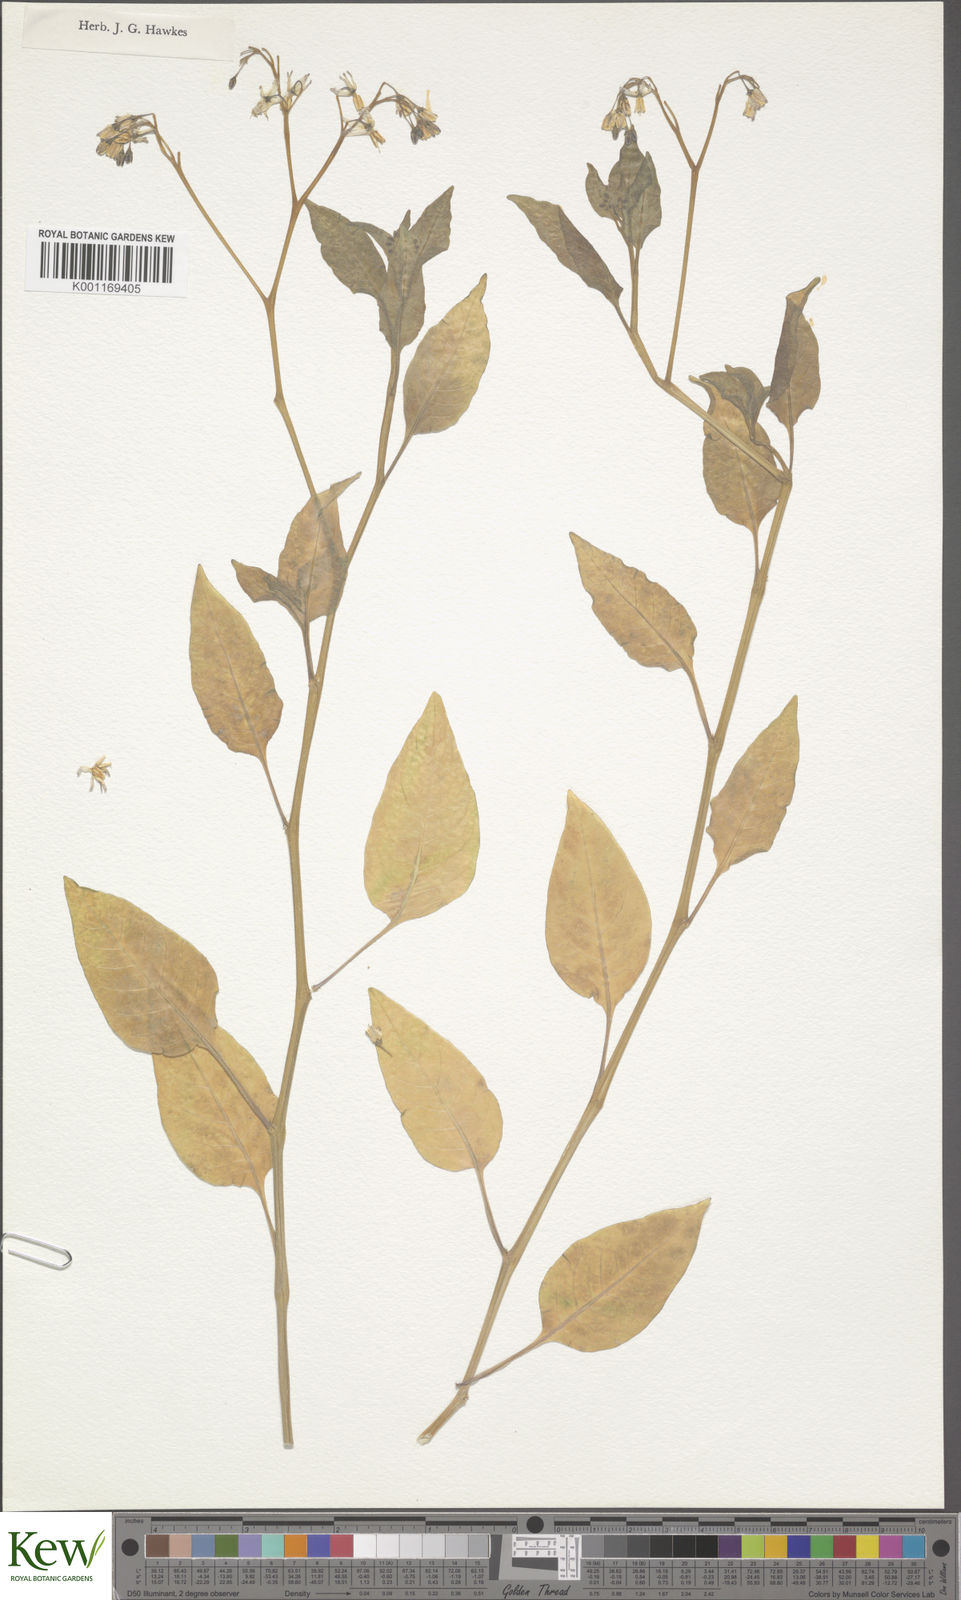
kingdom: Plantae
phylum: Tracheophyta
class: Magnoliopsida
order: Solanales
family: Solanaceae
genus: Solanum
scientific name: Solanum clarum
